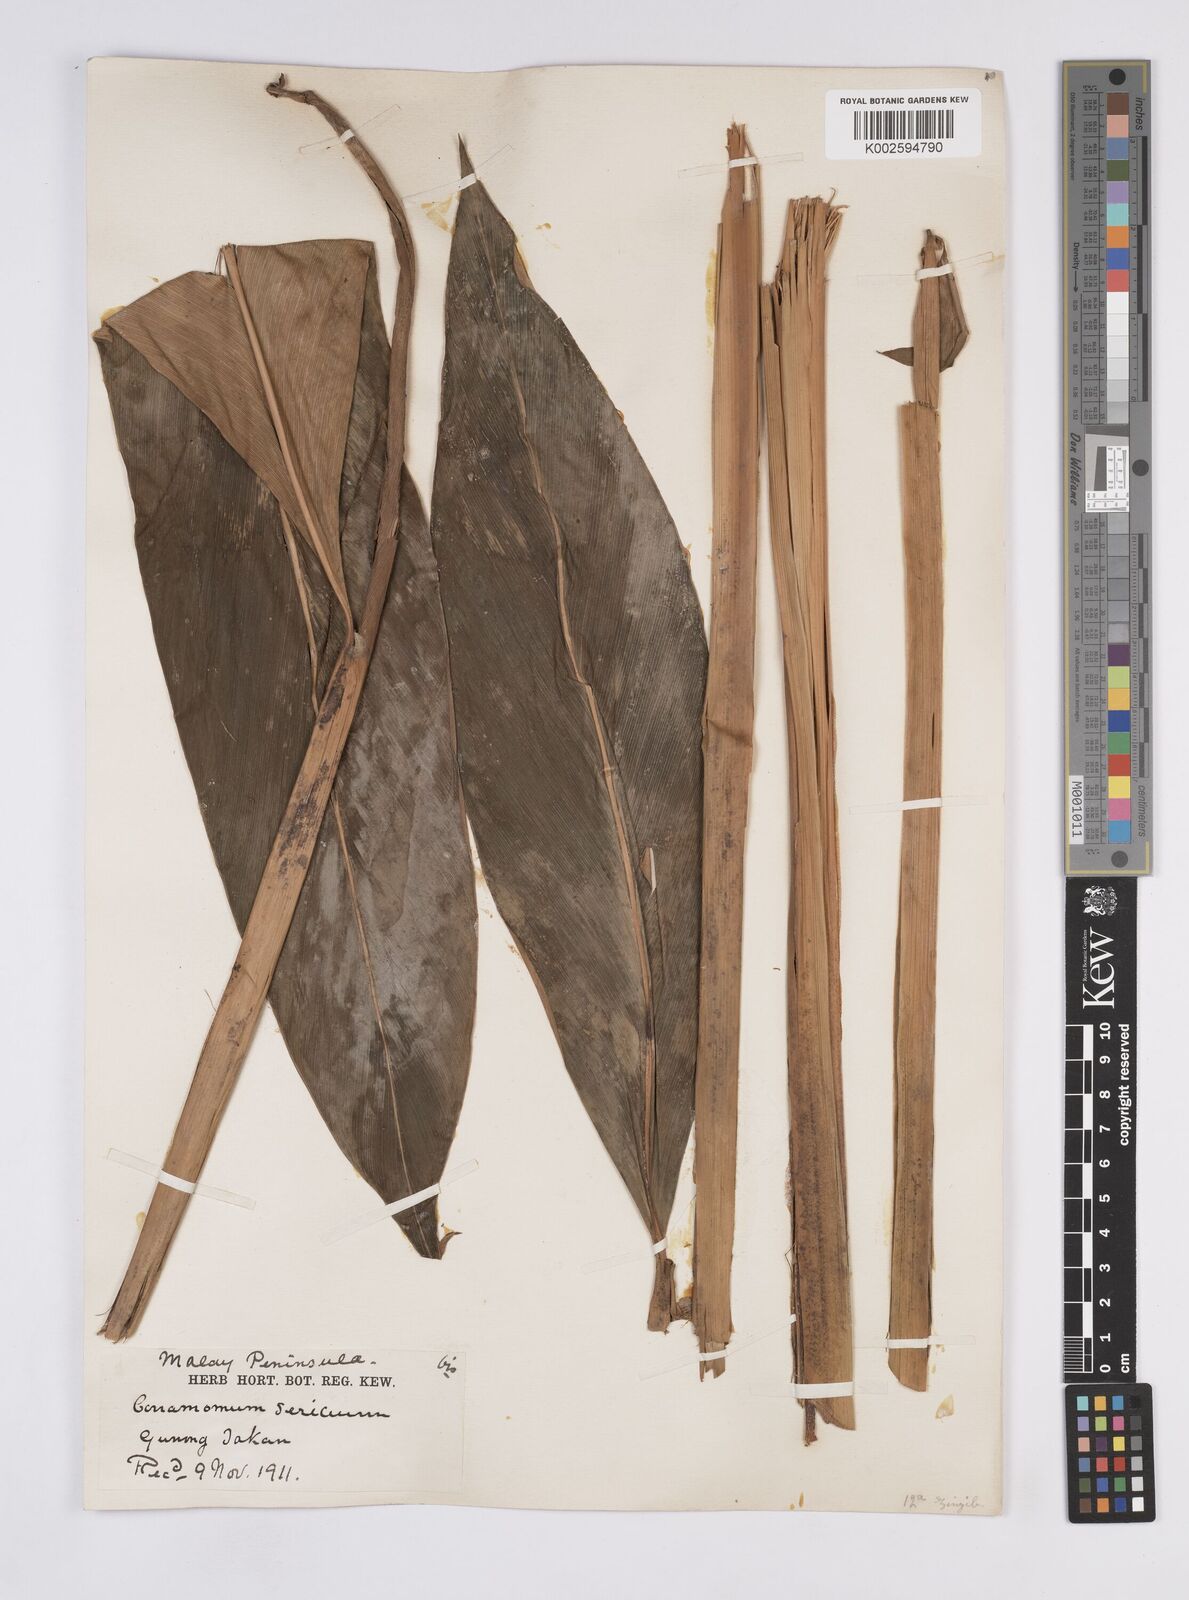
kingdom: Plantae
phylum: Tracheophyta
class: Liliopsida
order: Zingiberales
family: Zingiberaceae
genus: Geostachys
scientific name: Geostachys sericea
